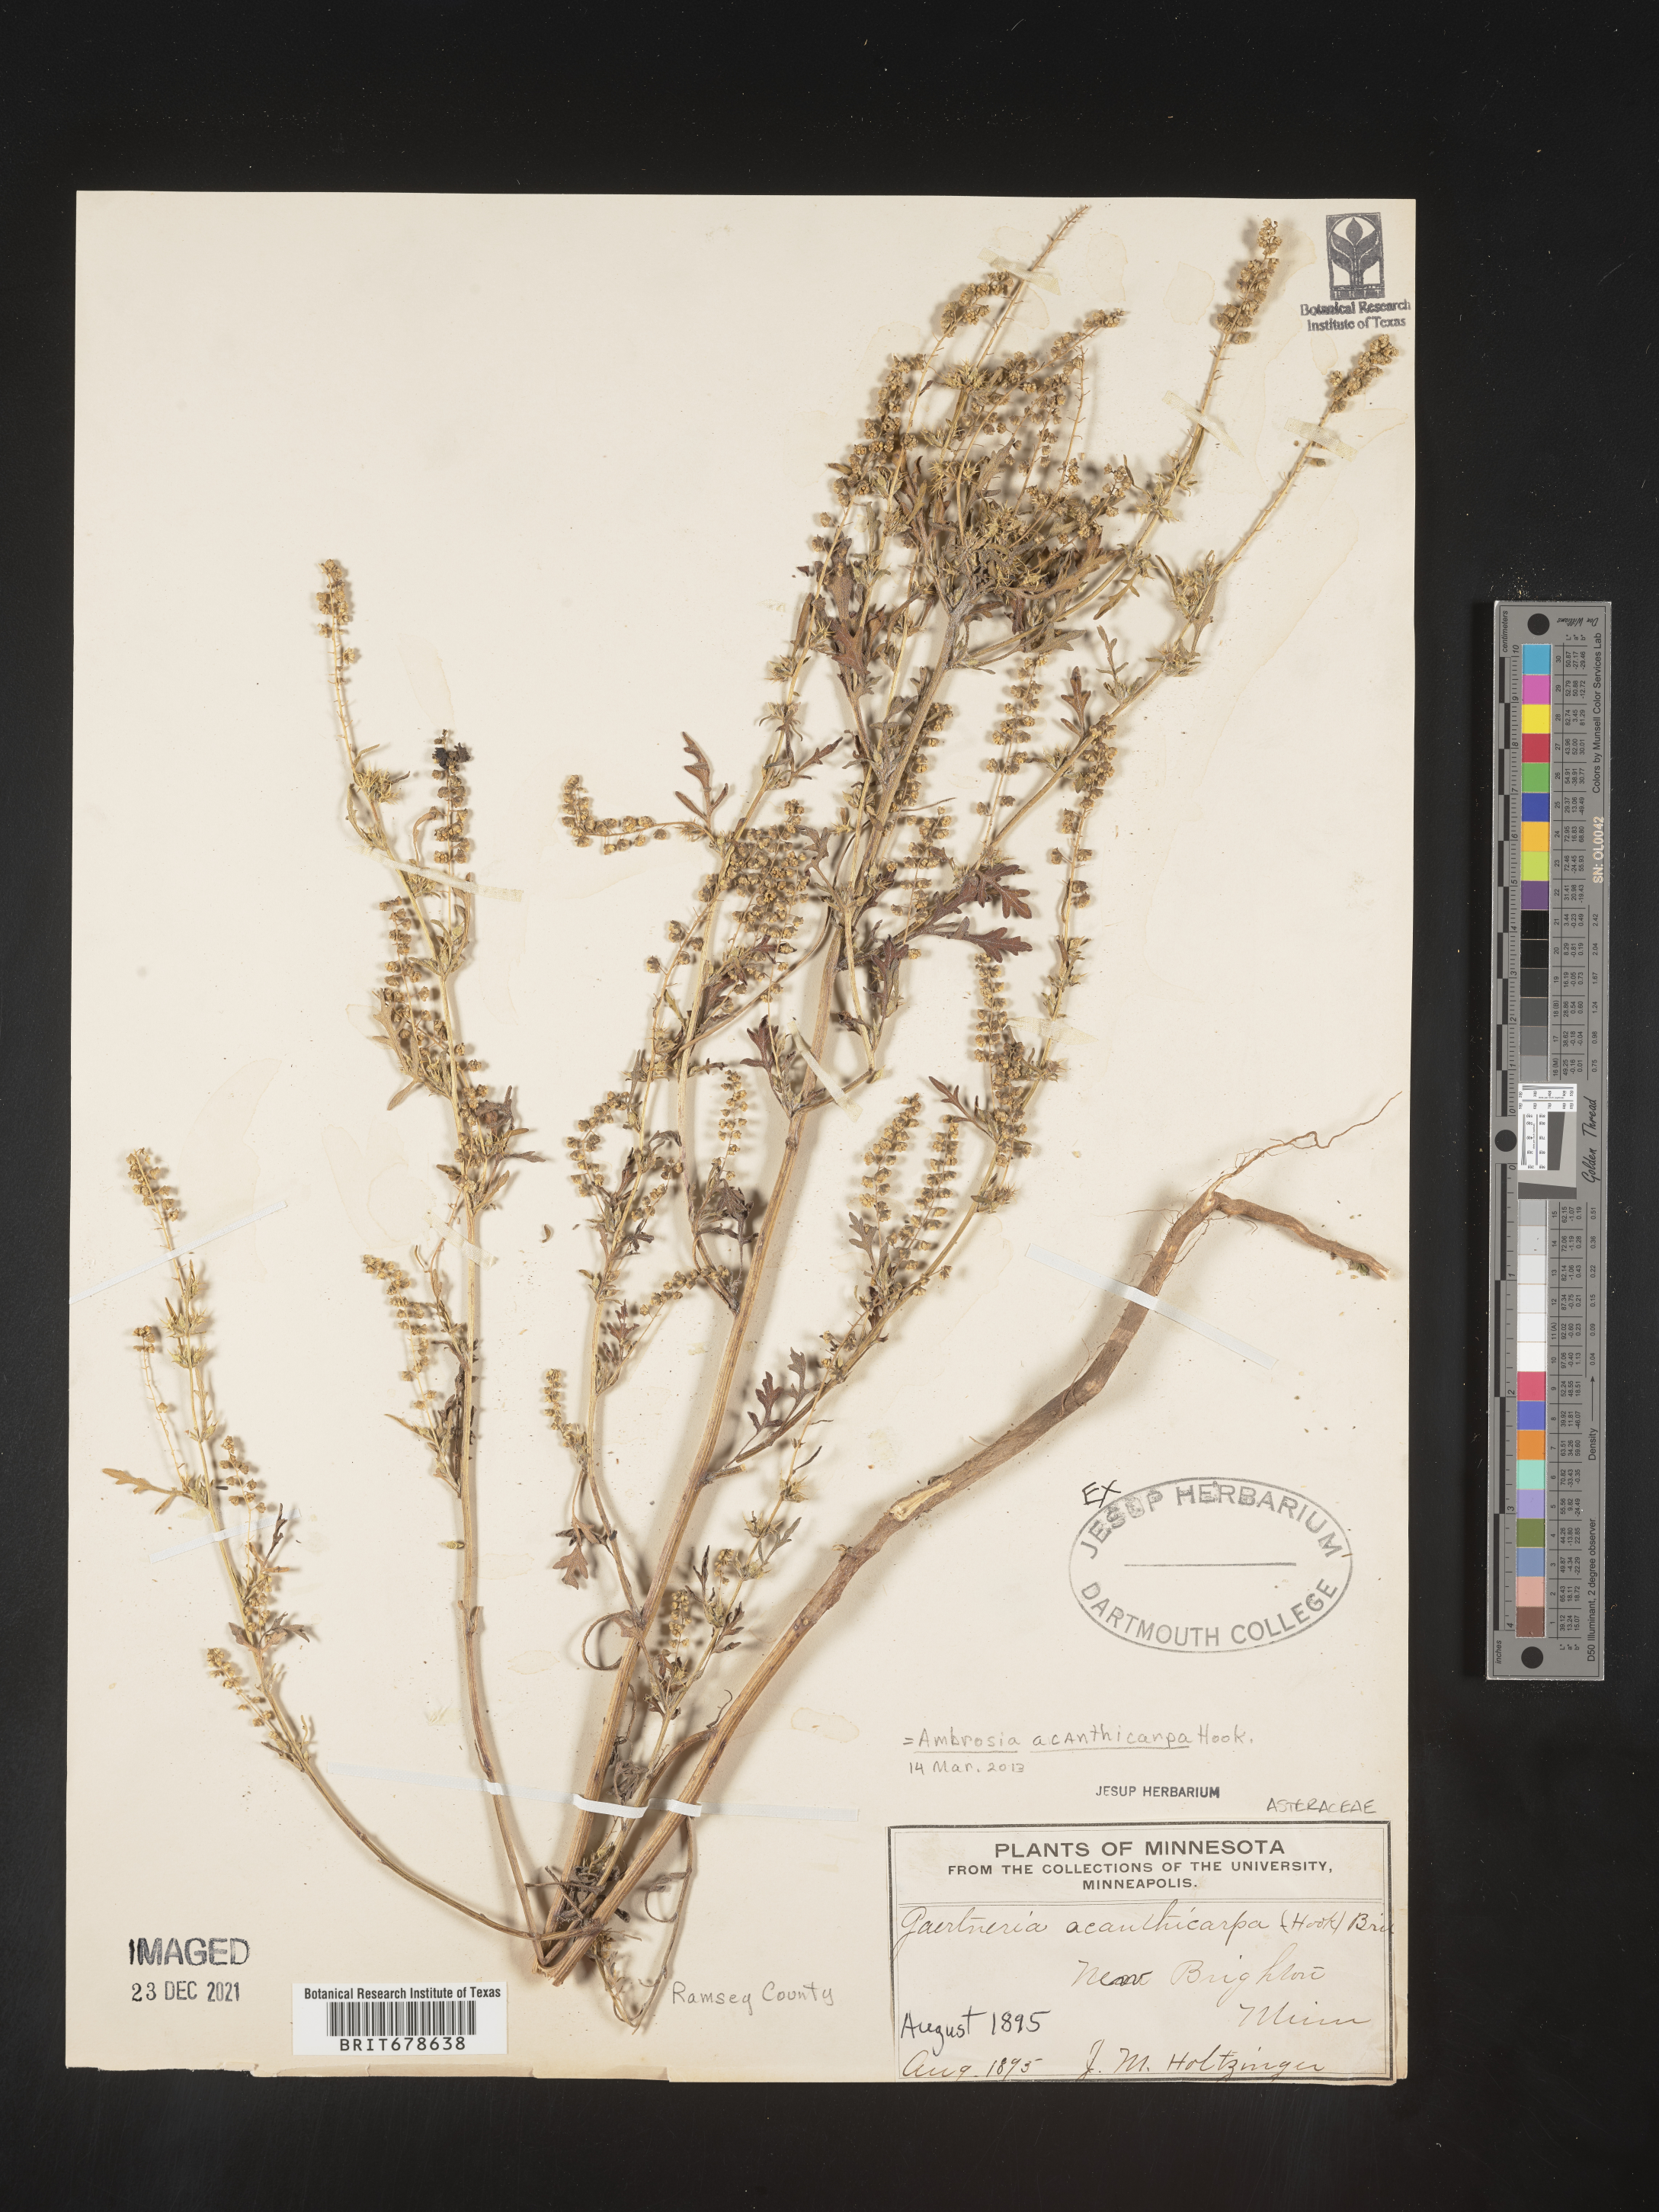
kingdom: Plantae
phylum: Tracheophyta
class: Magnoliopsida
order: Asterales
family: Asteraceae
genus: Ambrosia
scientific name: Ambrosia acanthicarpa
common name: Hooker's bur ragweed
